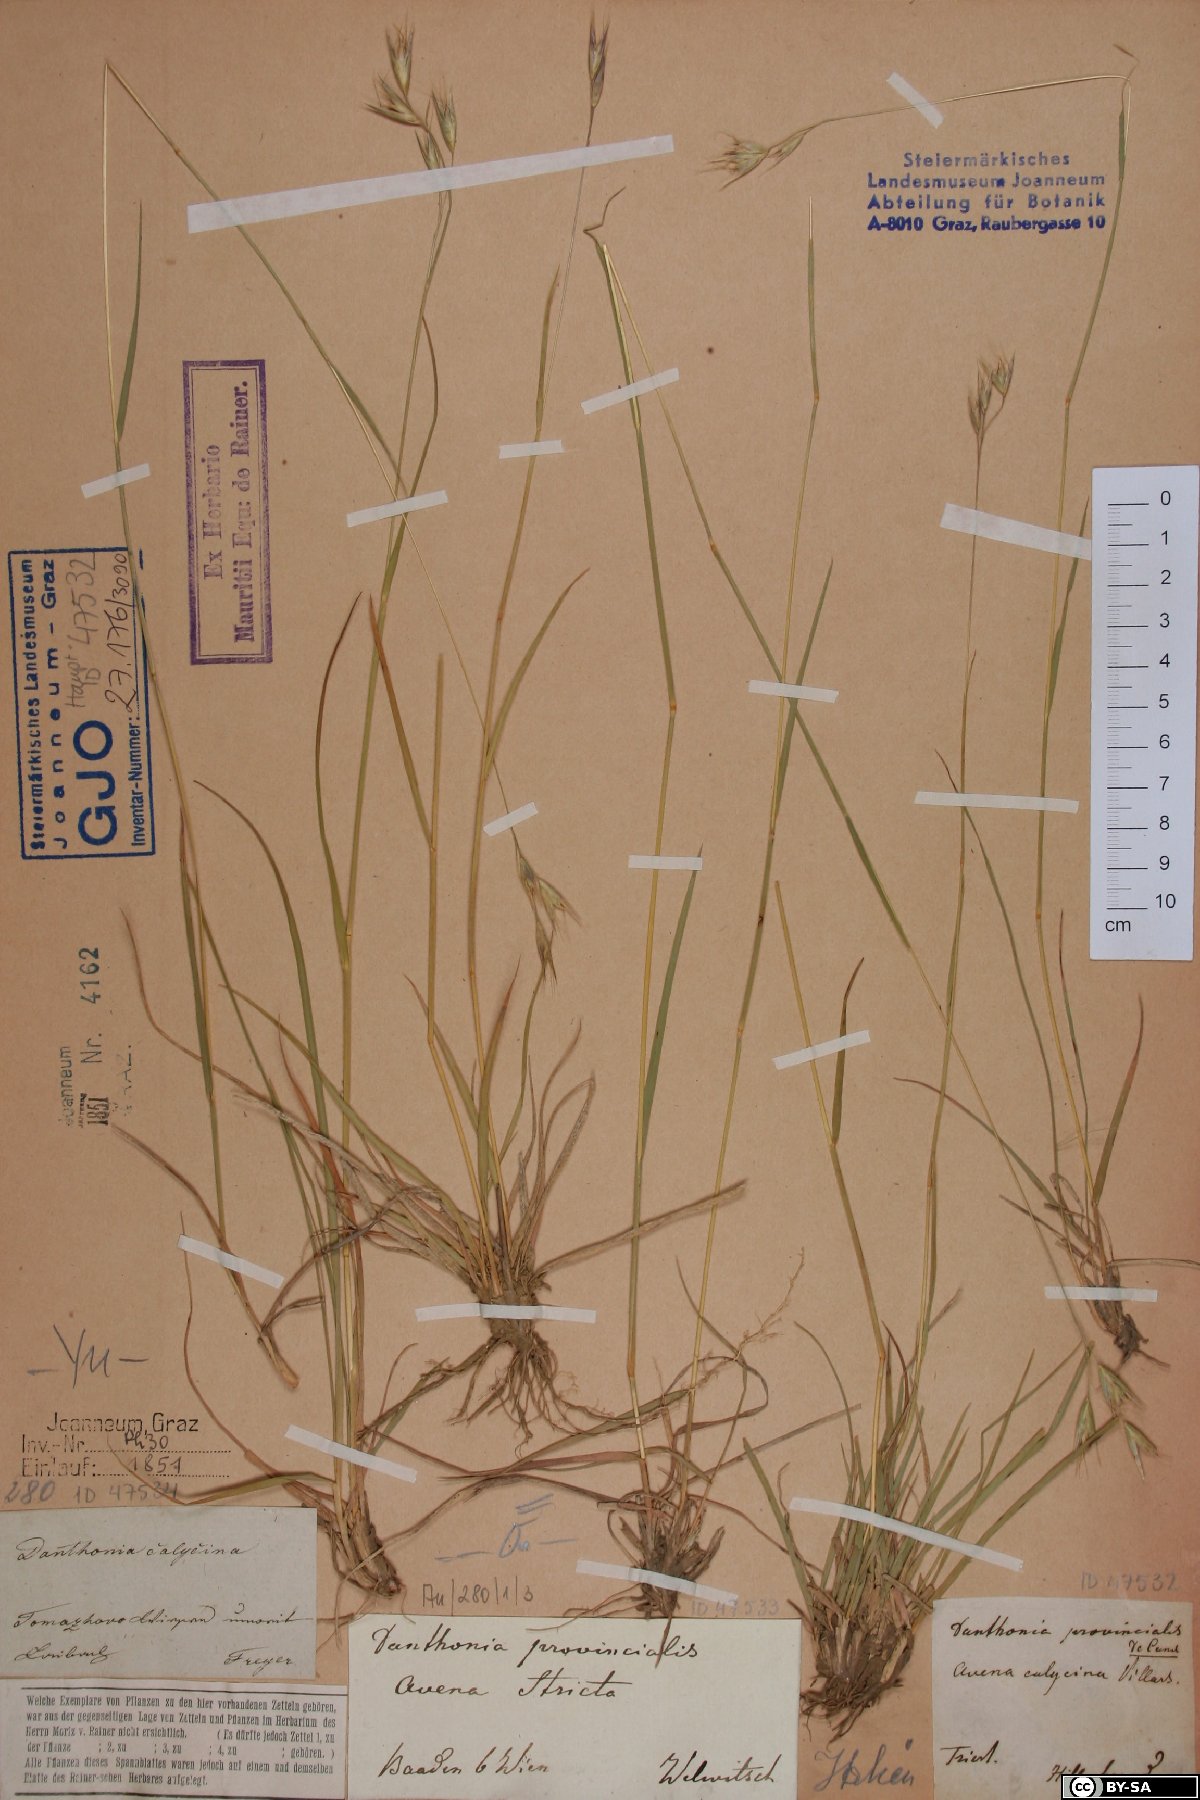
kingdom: Plantae
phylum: Tracheophyta
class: Liliopsida
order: Poales
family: Poaceae
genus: Danthonia
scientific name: Danthonia alpina
